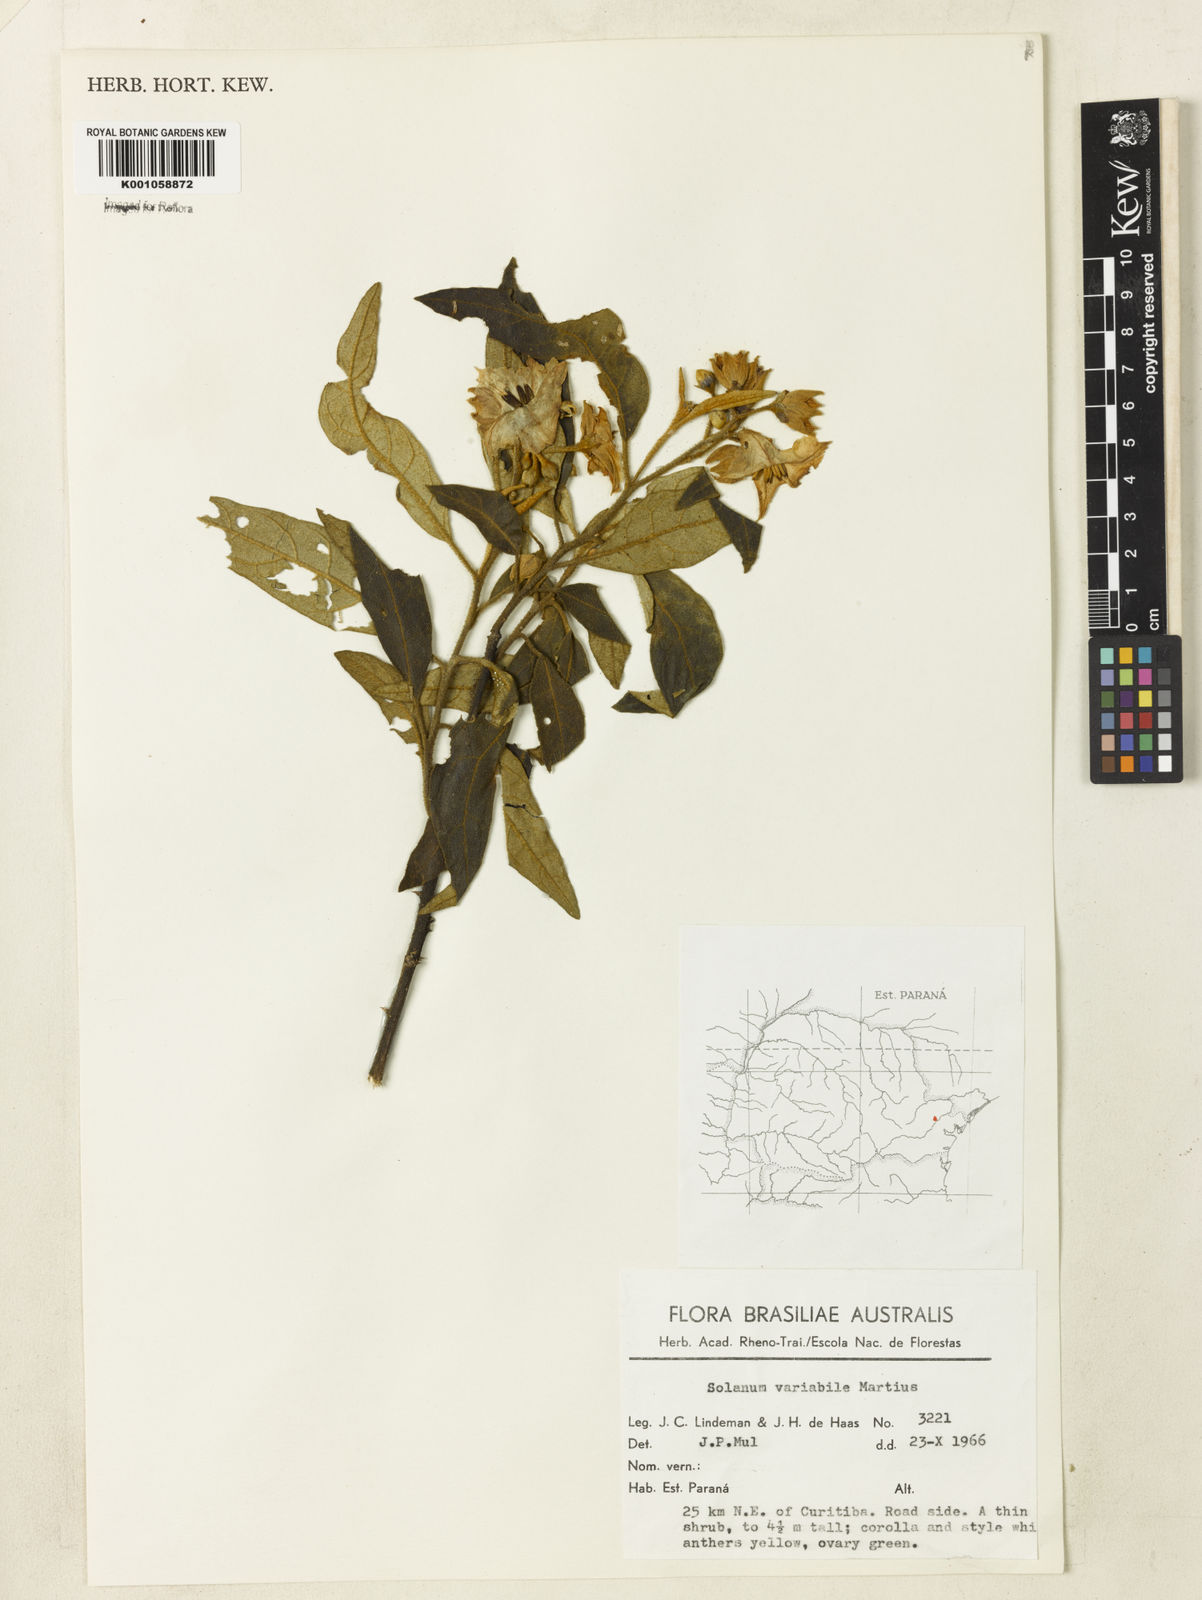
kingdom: Plantae
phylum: Tracheophyta
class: Magnoliopsida
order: Solanales
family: Solanaceae
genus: Solanum
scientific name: Solanum variabile
